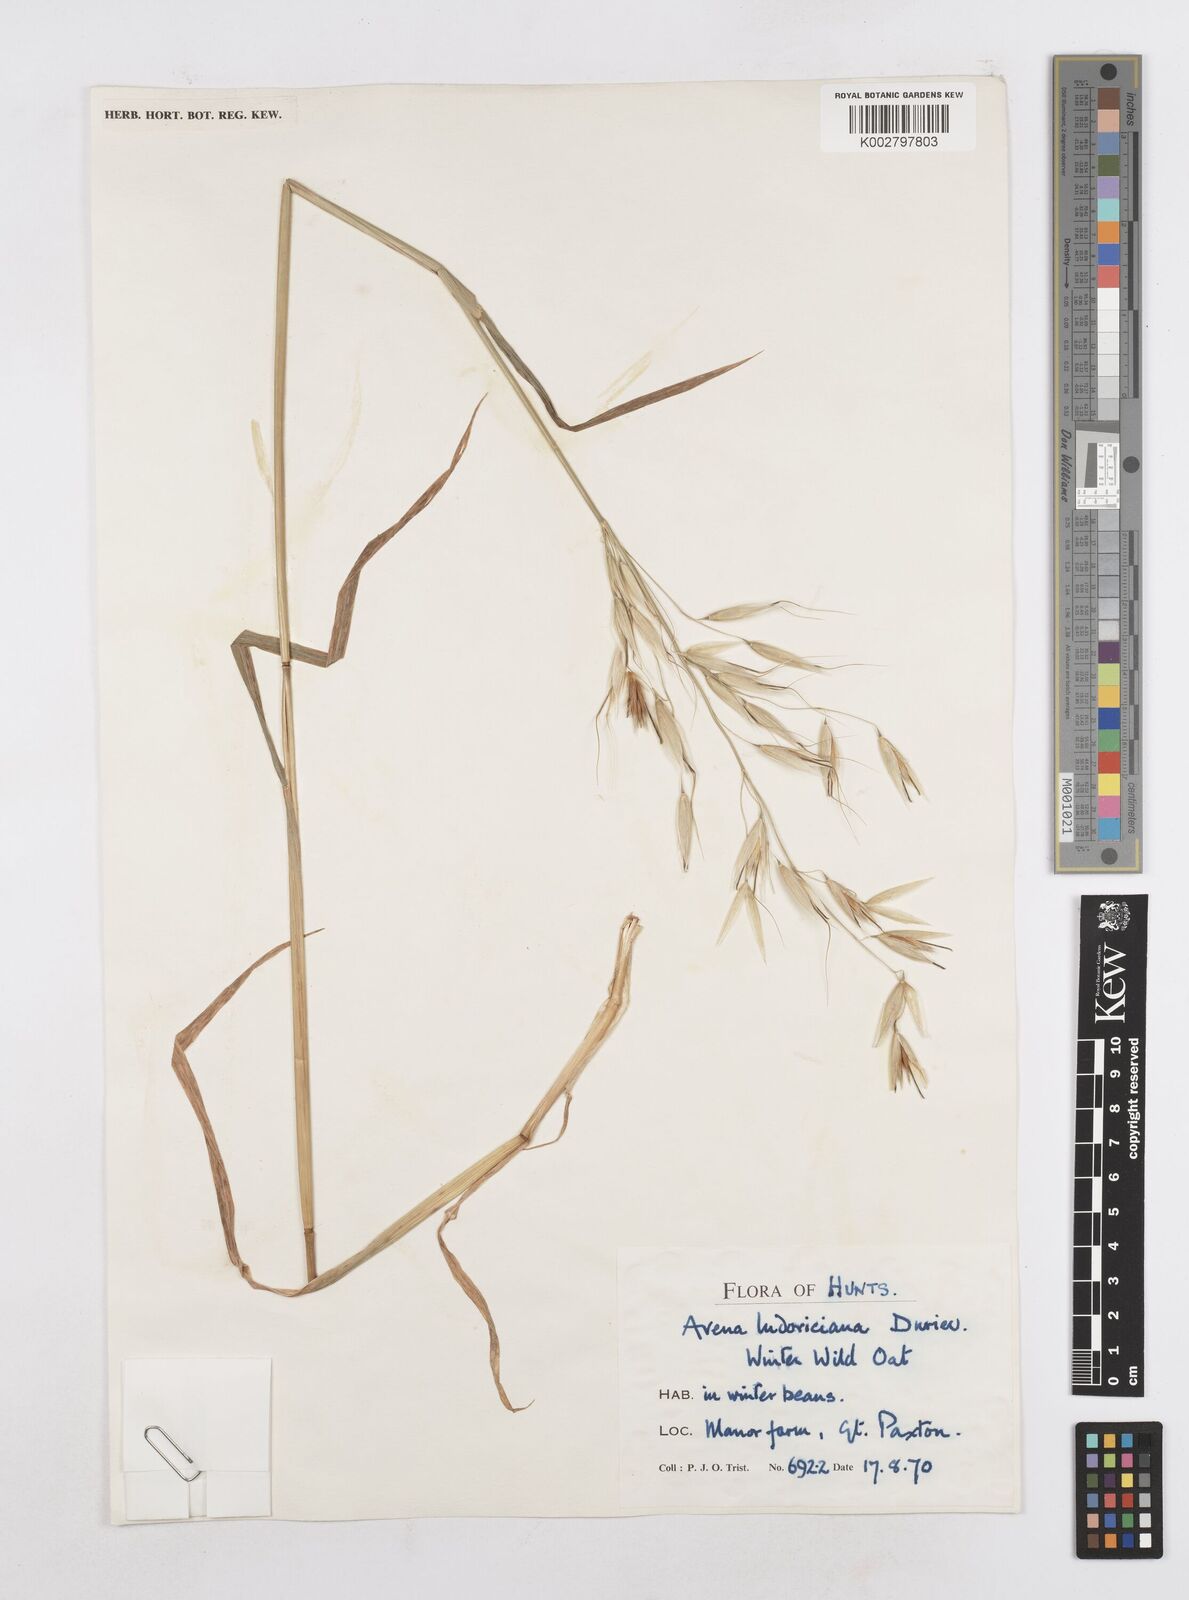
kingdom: Plantae
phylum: Tracheophyta
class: Liliopsida
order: Poales
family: Poaceae
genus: Avena
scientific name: Avena sterilis
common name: Animated oat
